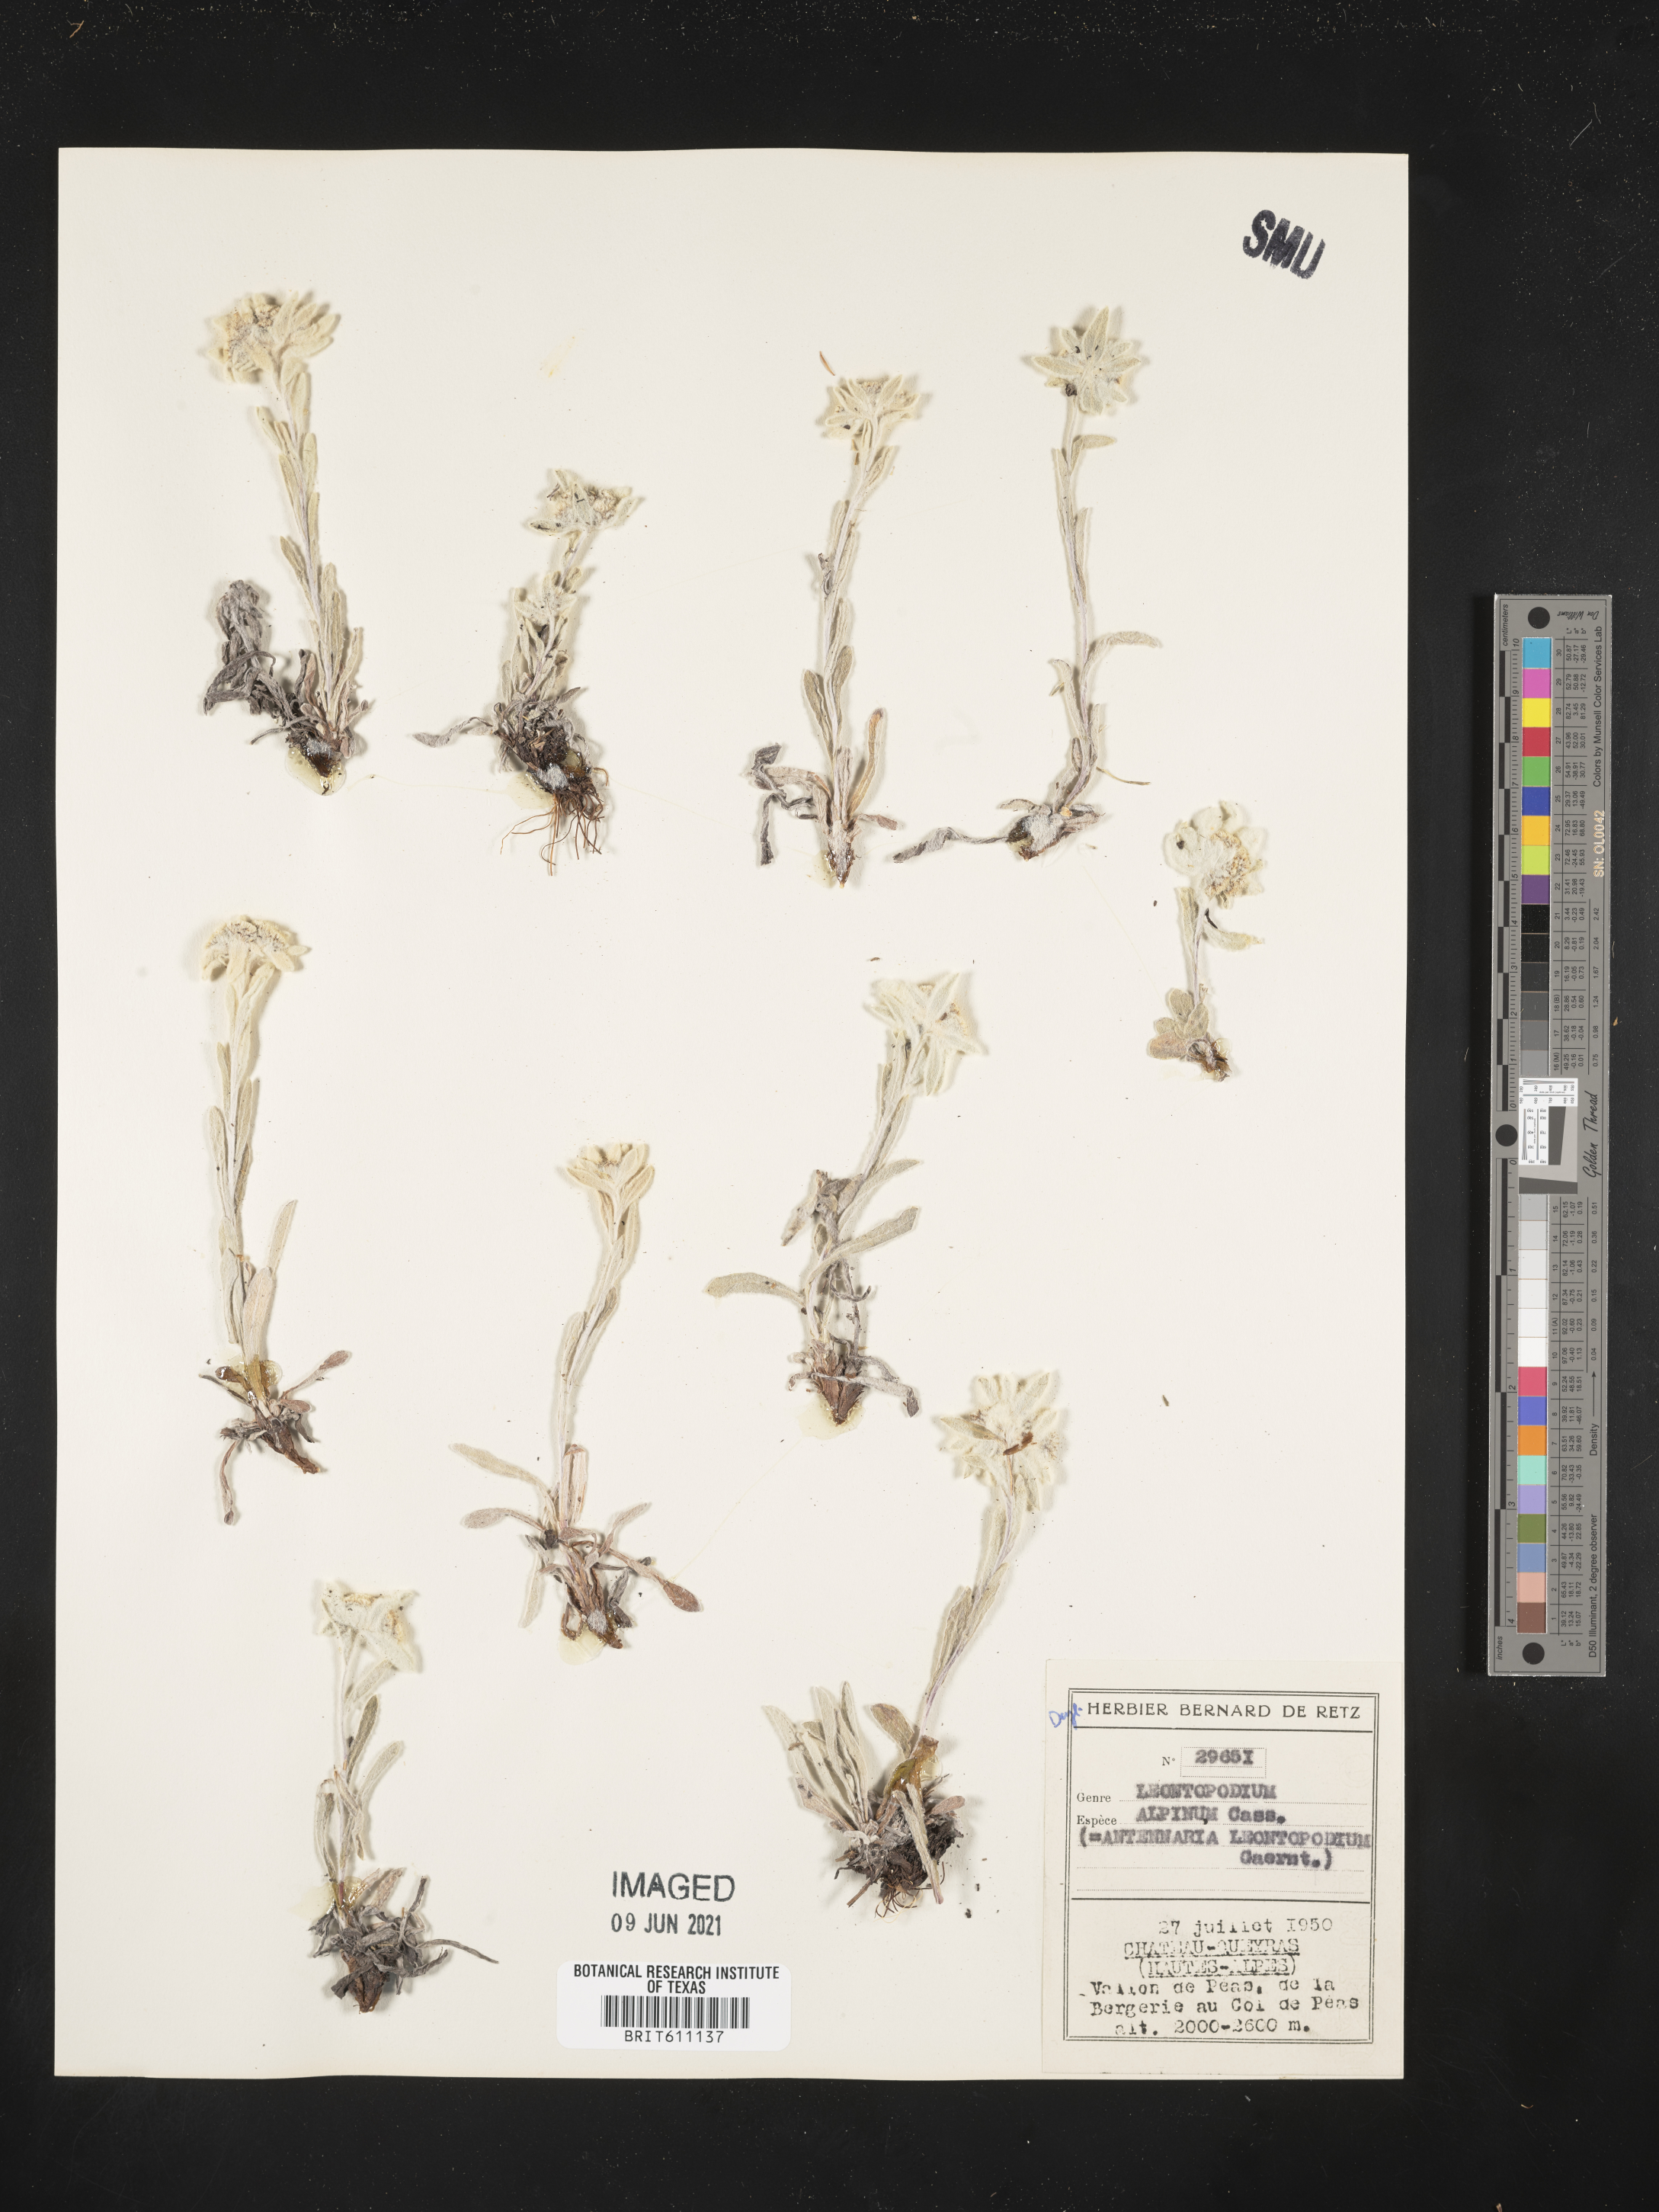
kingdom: Plantae
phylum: Tracheophyta
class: Magnoliopsida
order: Asterales
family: Asteraceae
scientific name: Asteraceae
